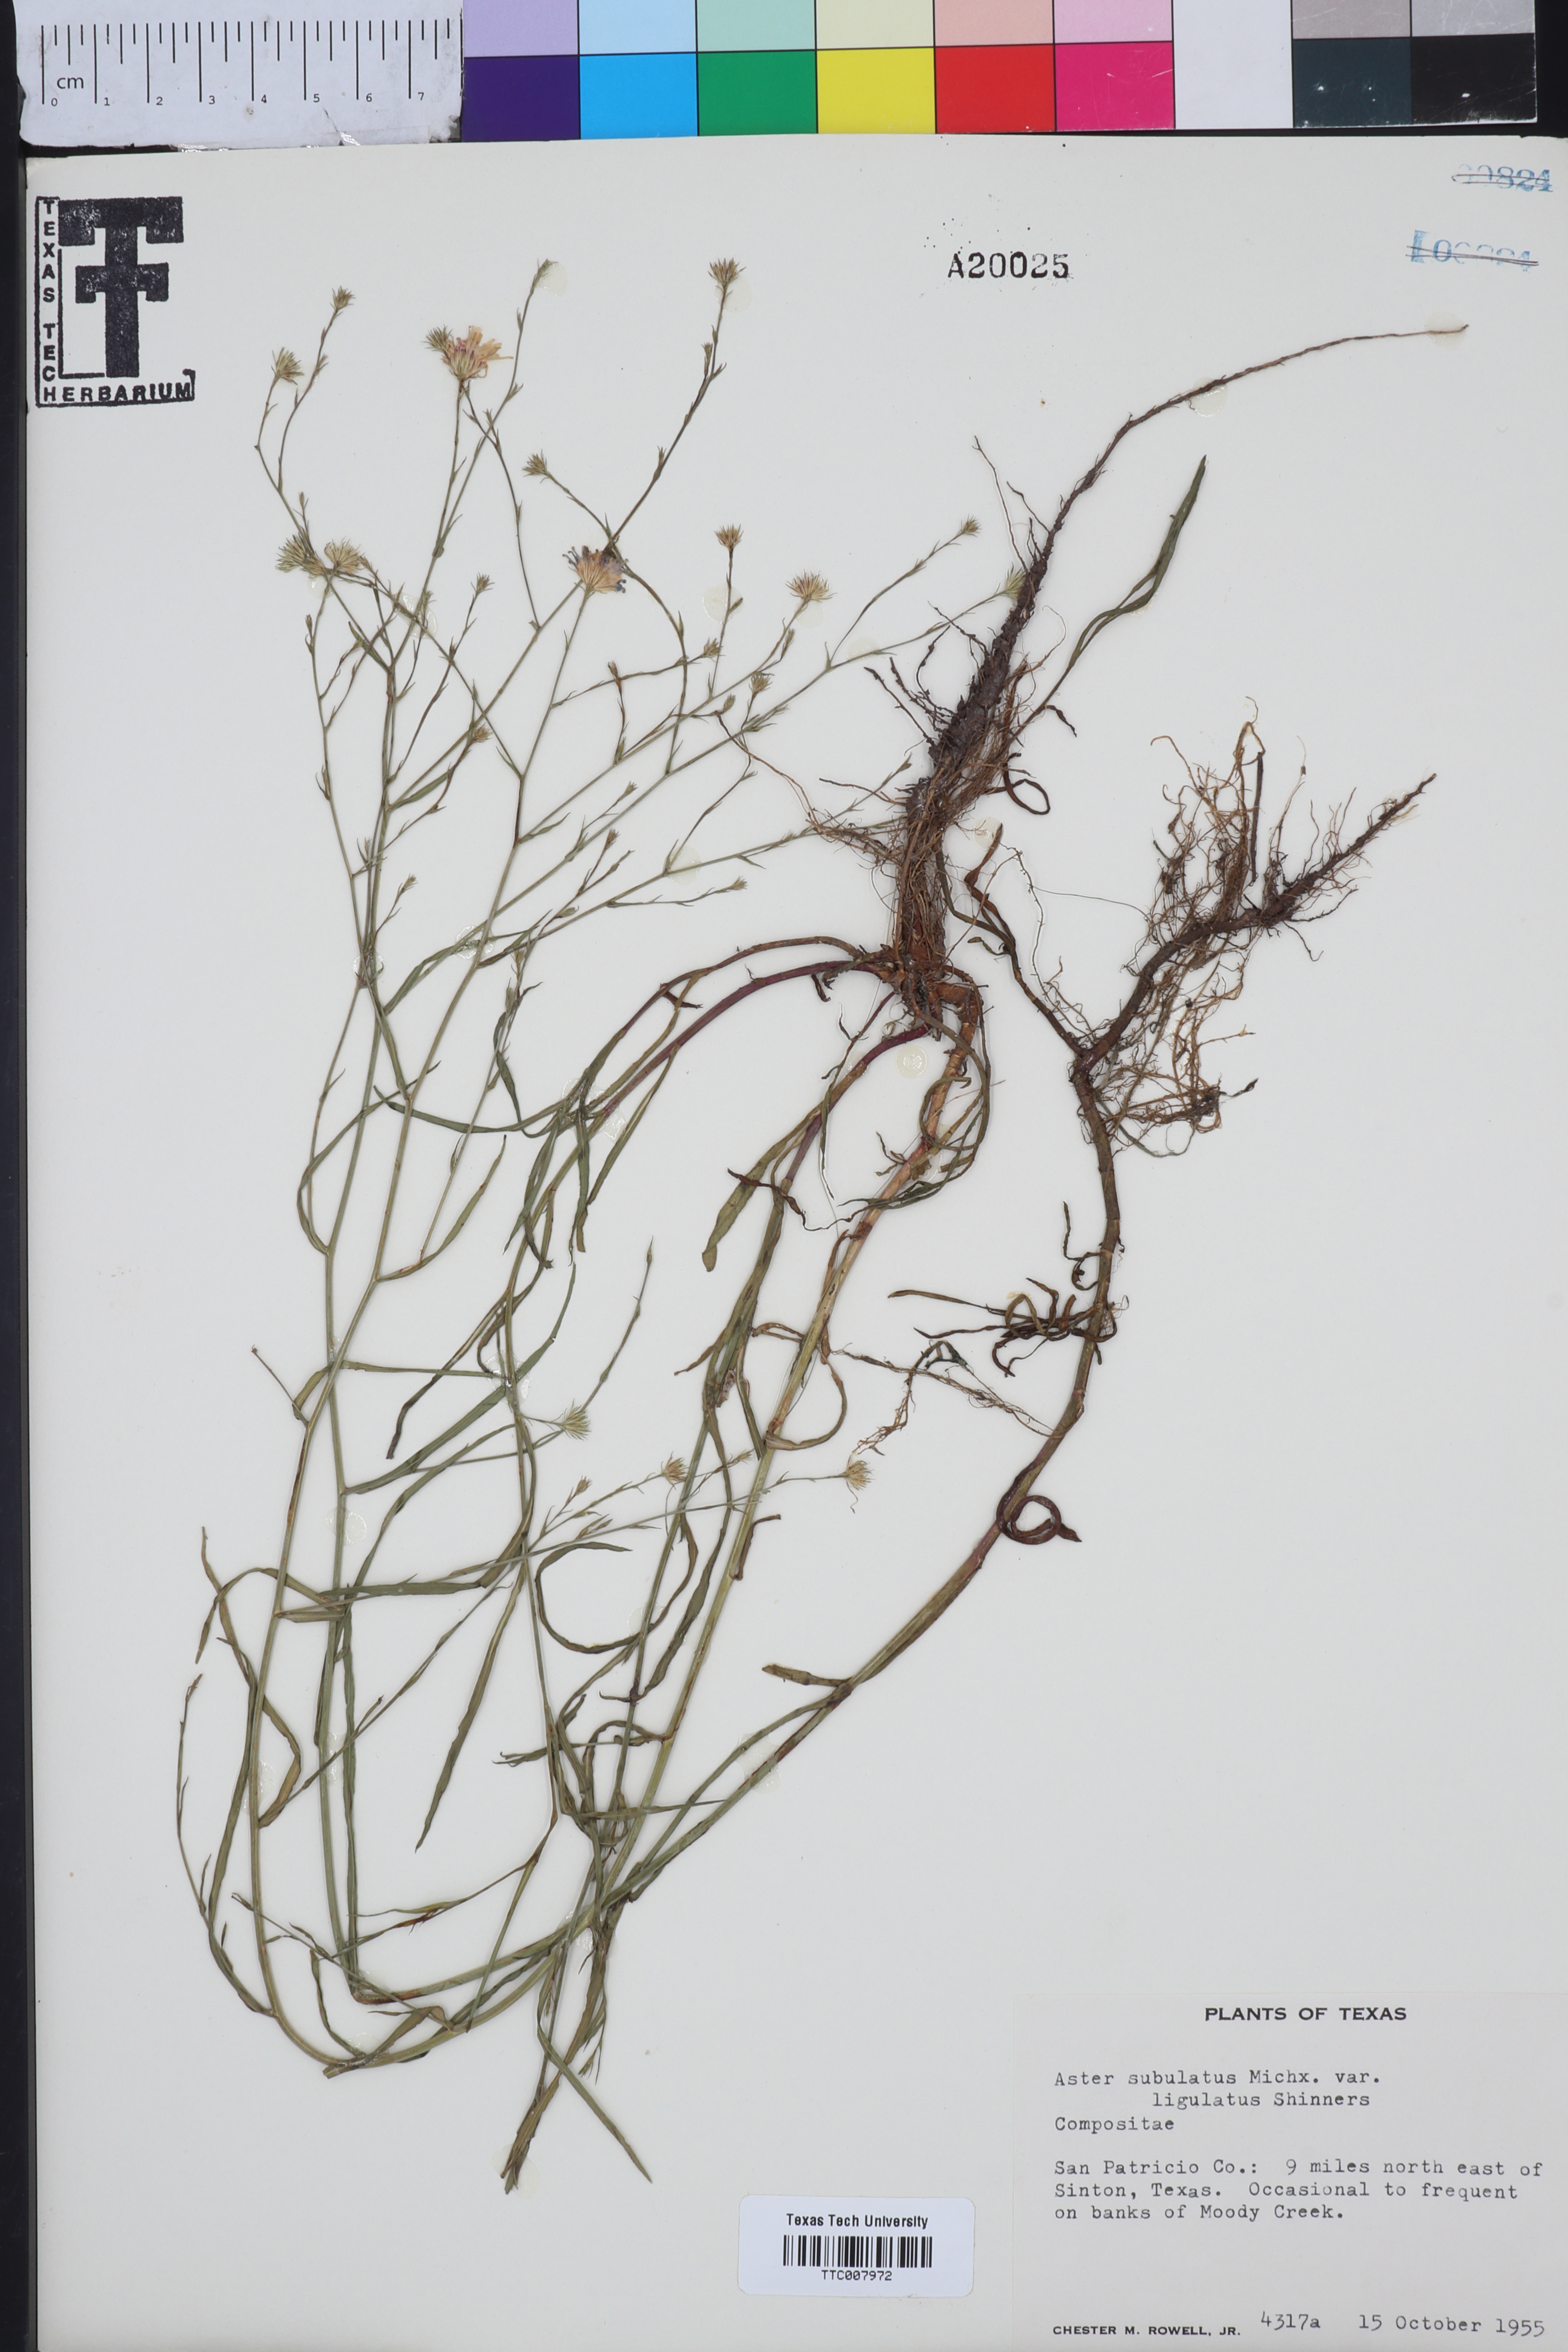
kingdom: Plantae
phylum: Tracheophyta
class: Magnoliopsida
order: Asterales
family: Asteraceae
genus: Symphyotrichum
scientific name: Symphyotrichum divaricatum
